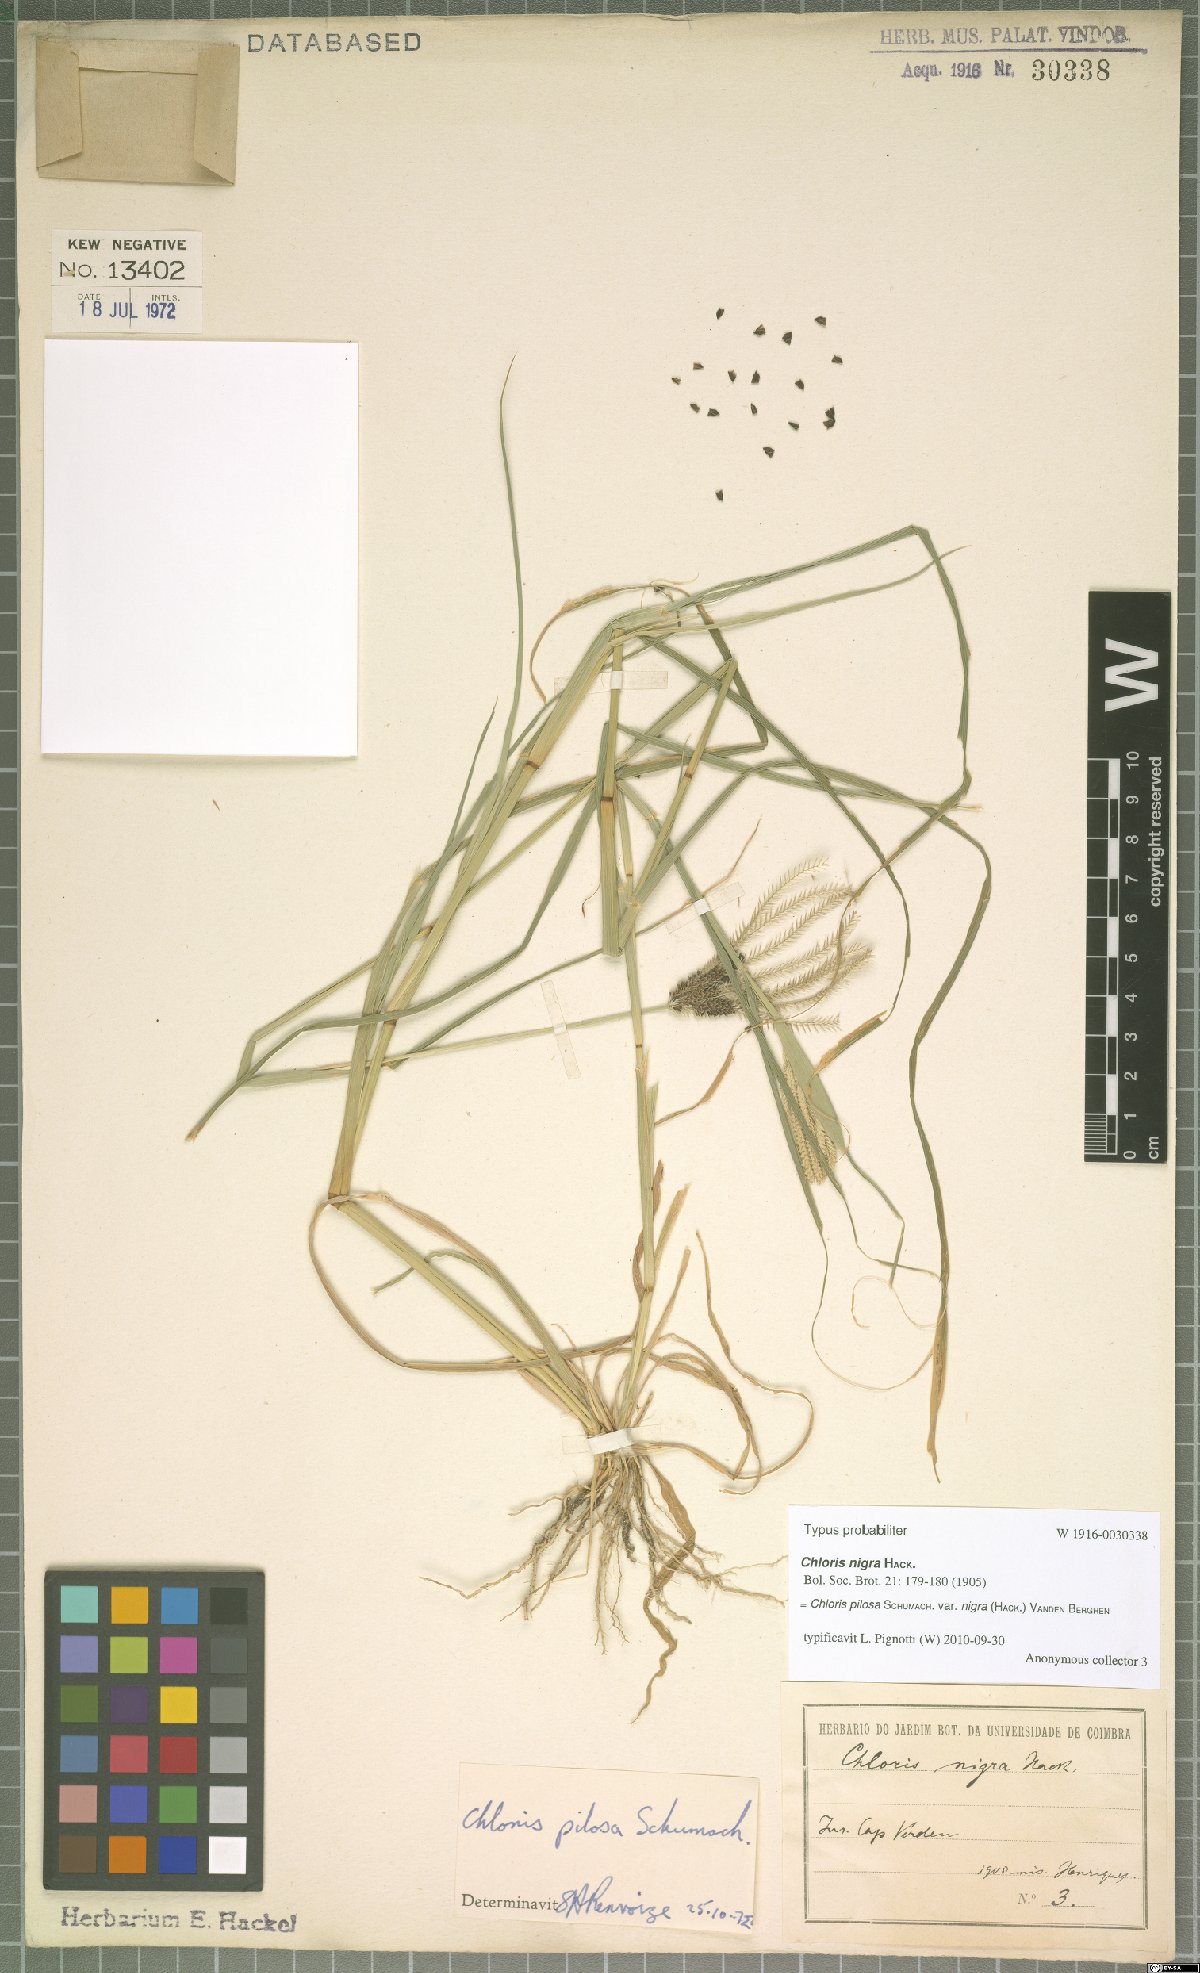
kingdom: Plantae
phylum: Tracheophyta
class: Liliopsida
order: Poales
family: Poaceae
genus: Chloris
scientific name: Chloris pilosa
